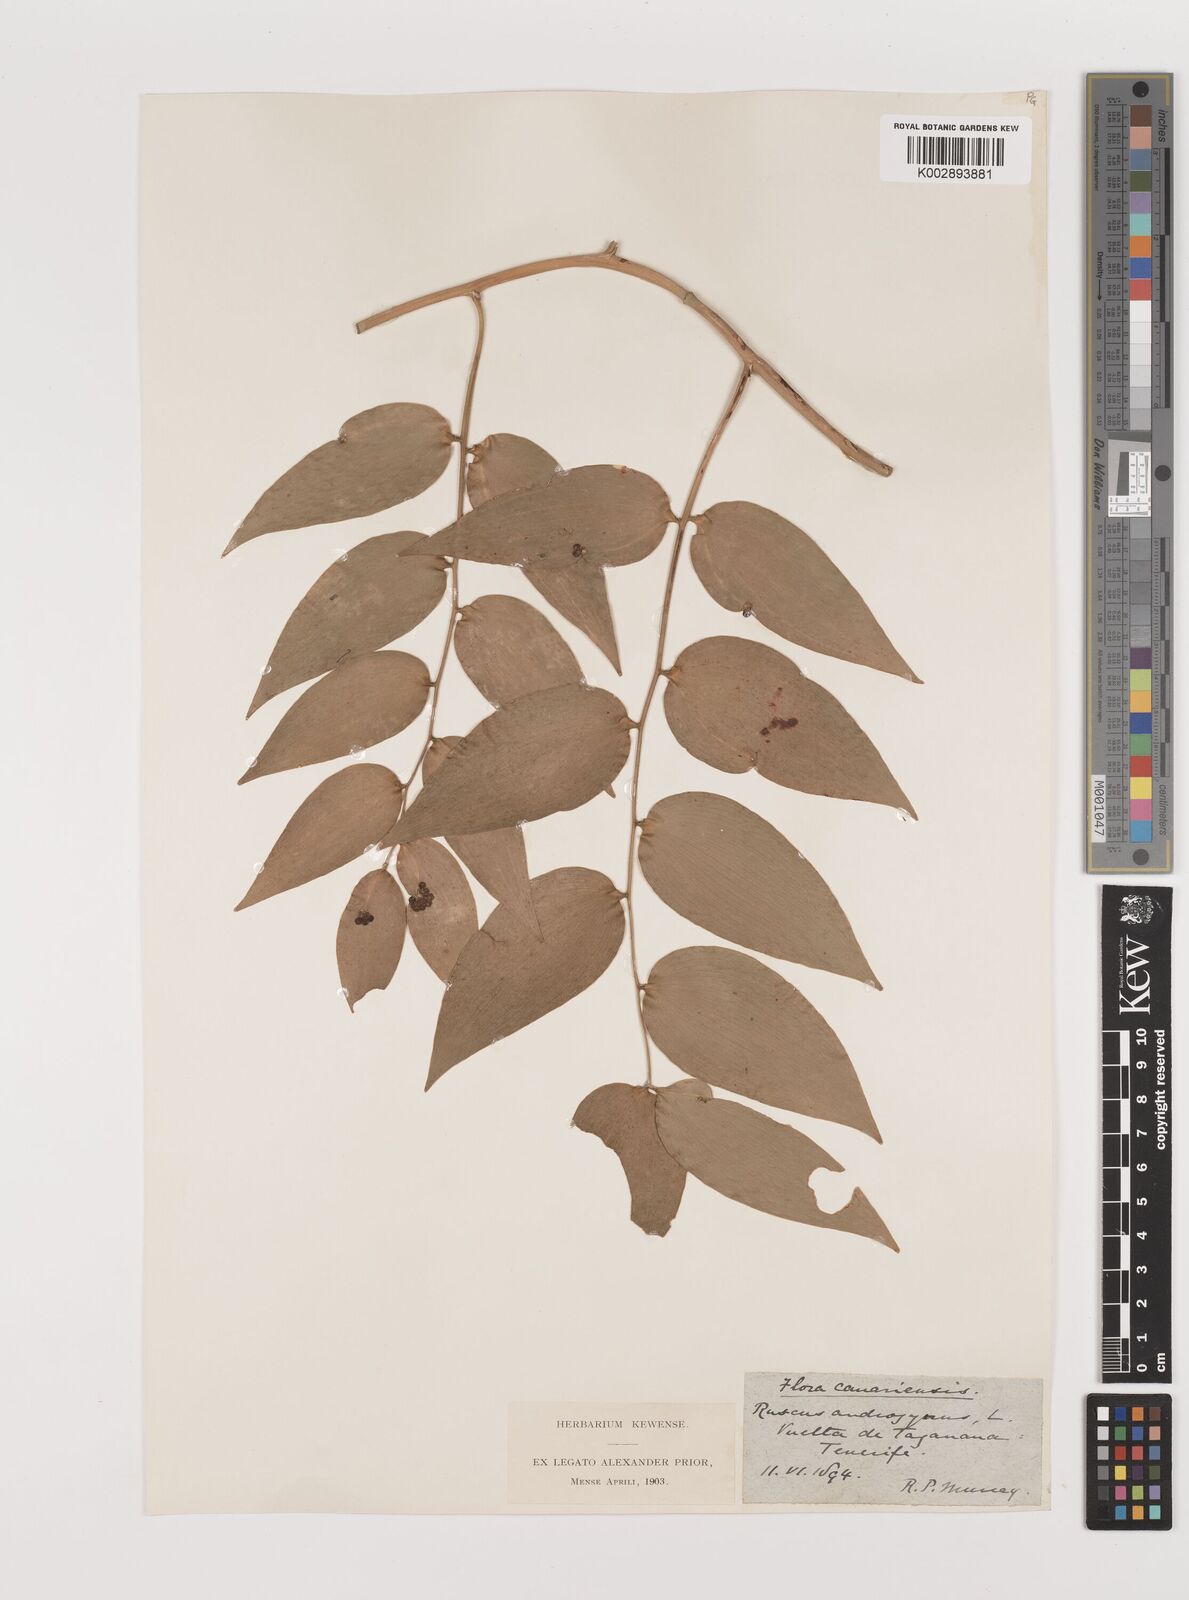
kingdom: Plantae
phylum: Tracheophyta
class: Liliopsida
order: Asparagales
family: Asparagaceae
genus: Semele
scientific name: Semele androgyna
